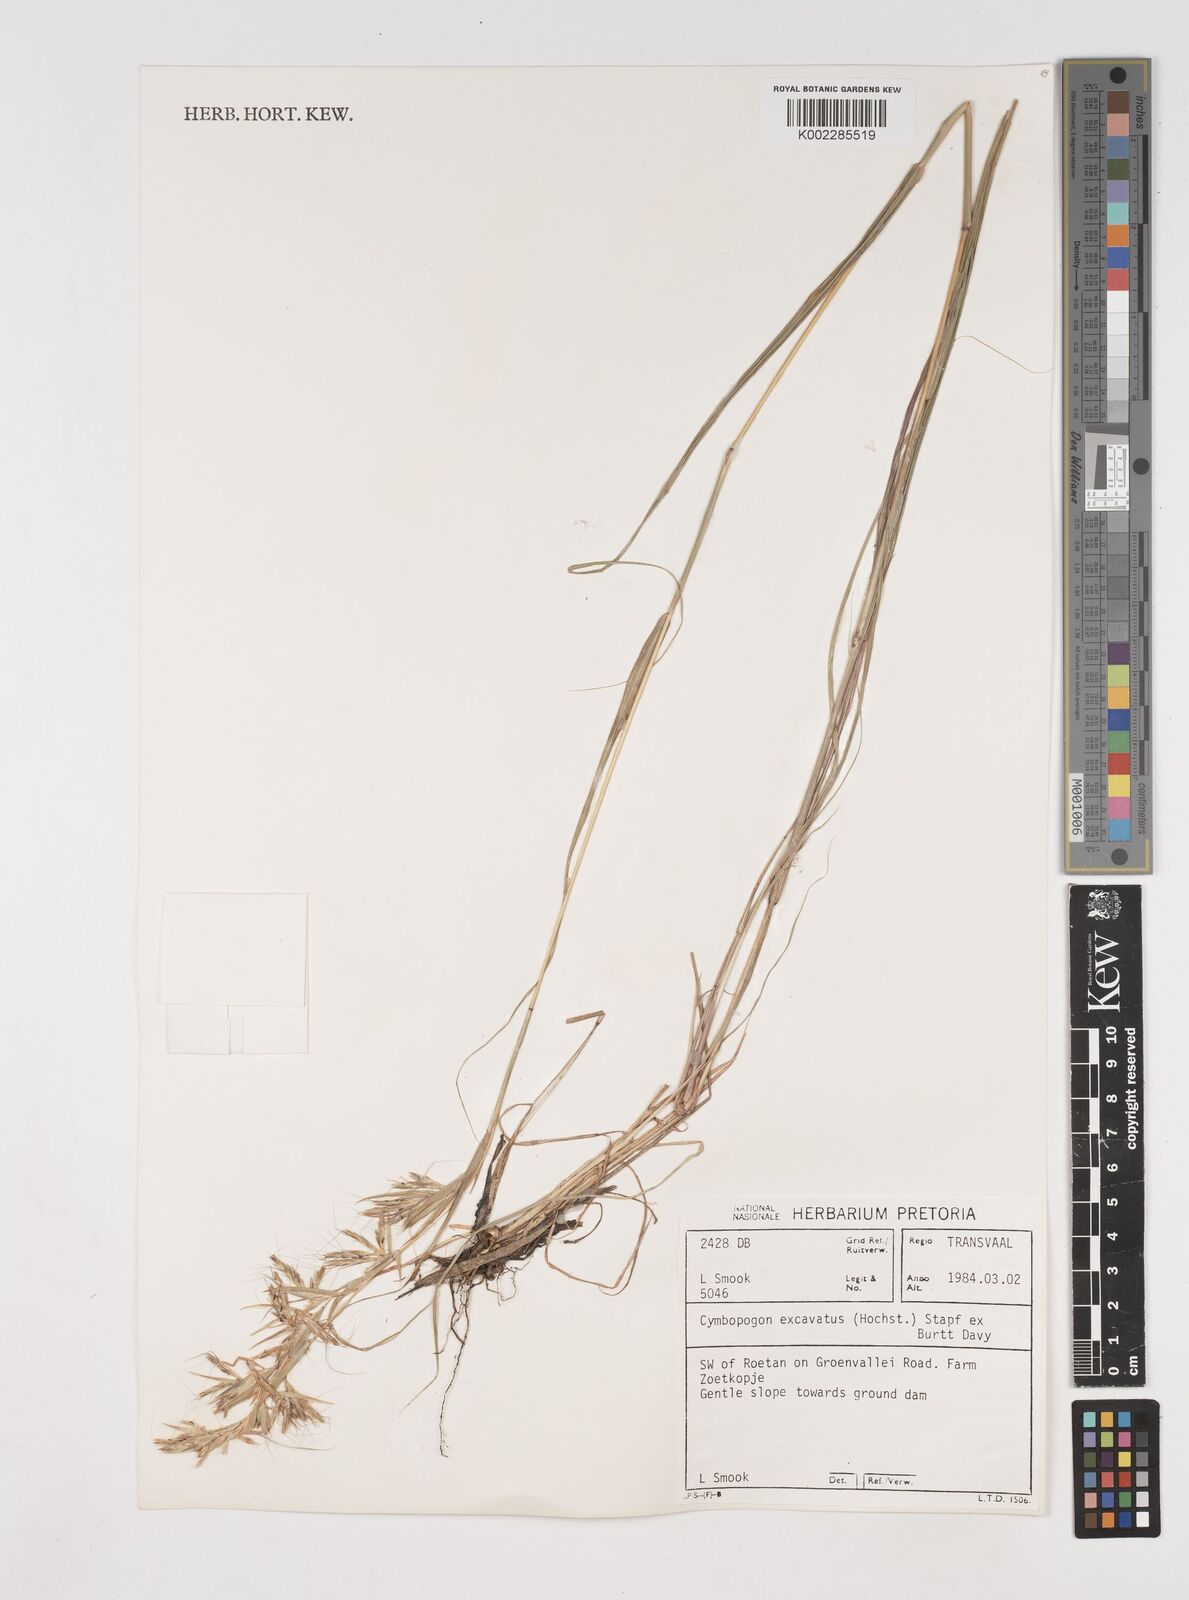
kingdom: Plantae
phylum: Tracheophyta
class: Liliopsida
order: Poales
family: Poaceae
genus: Cymbopogon
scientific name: Cymbopogon caesius
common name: Kachi grass
